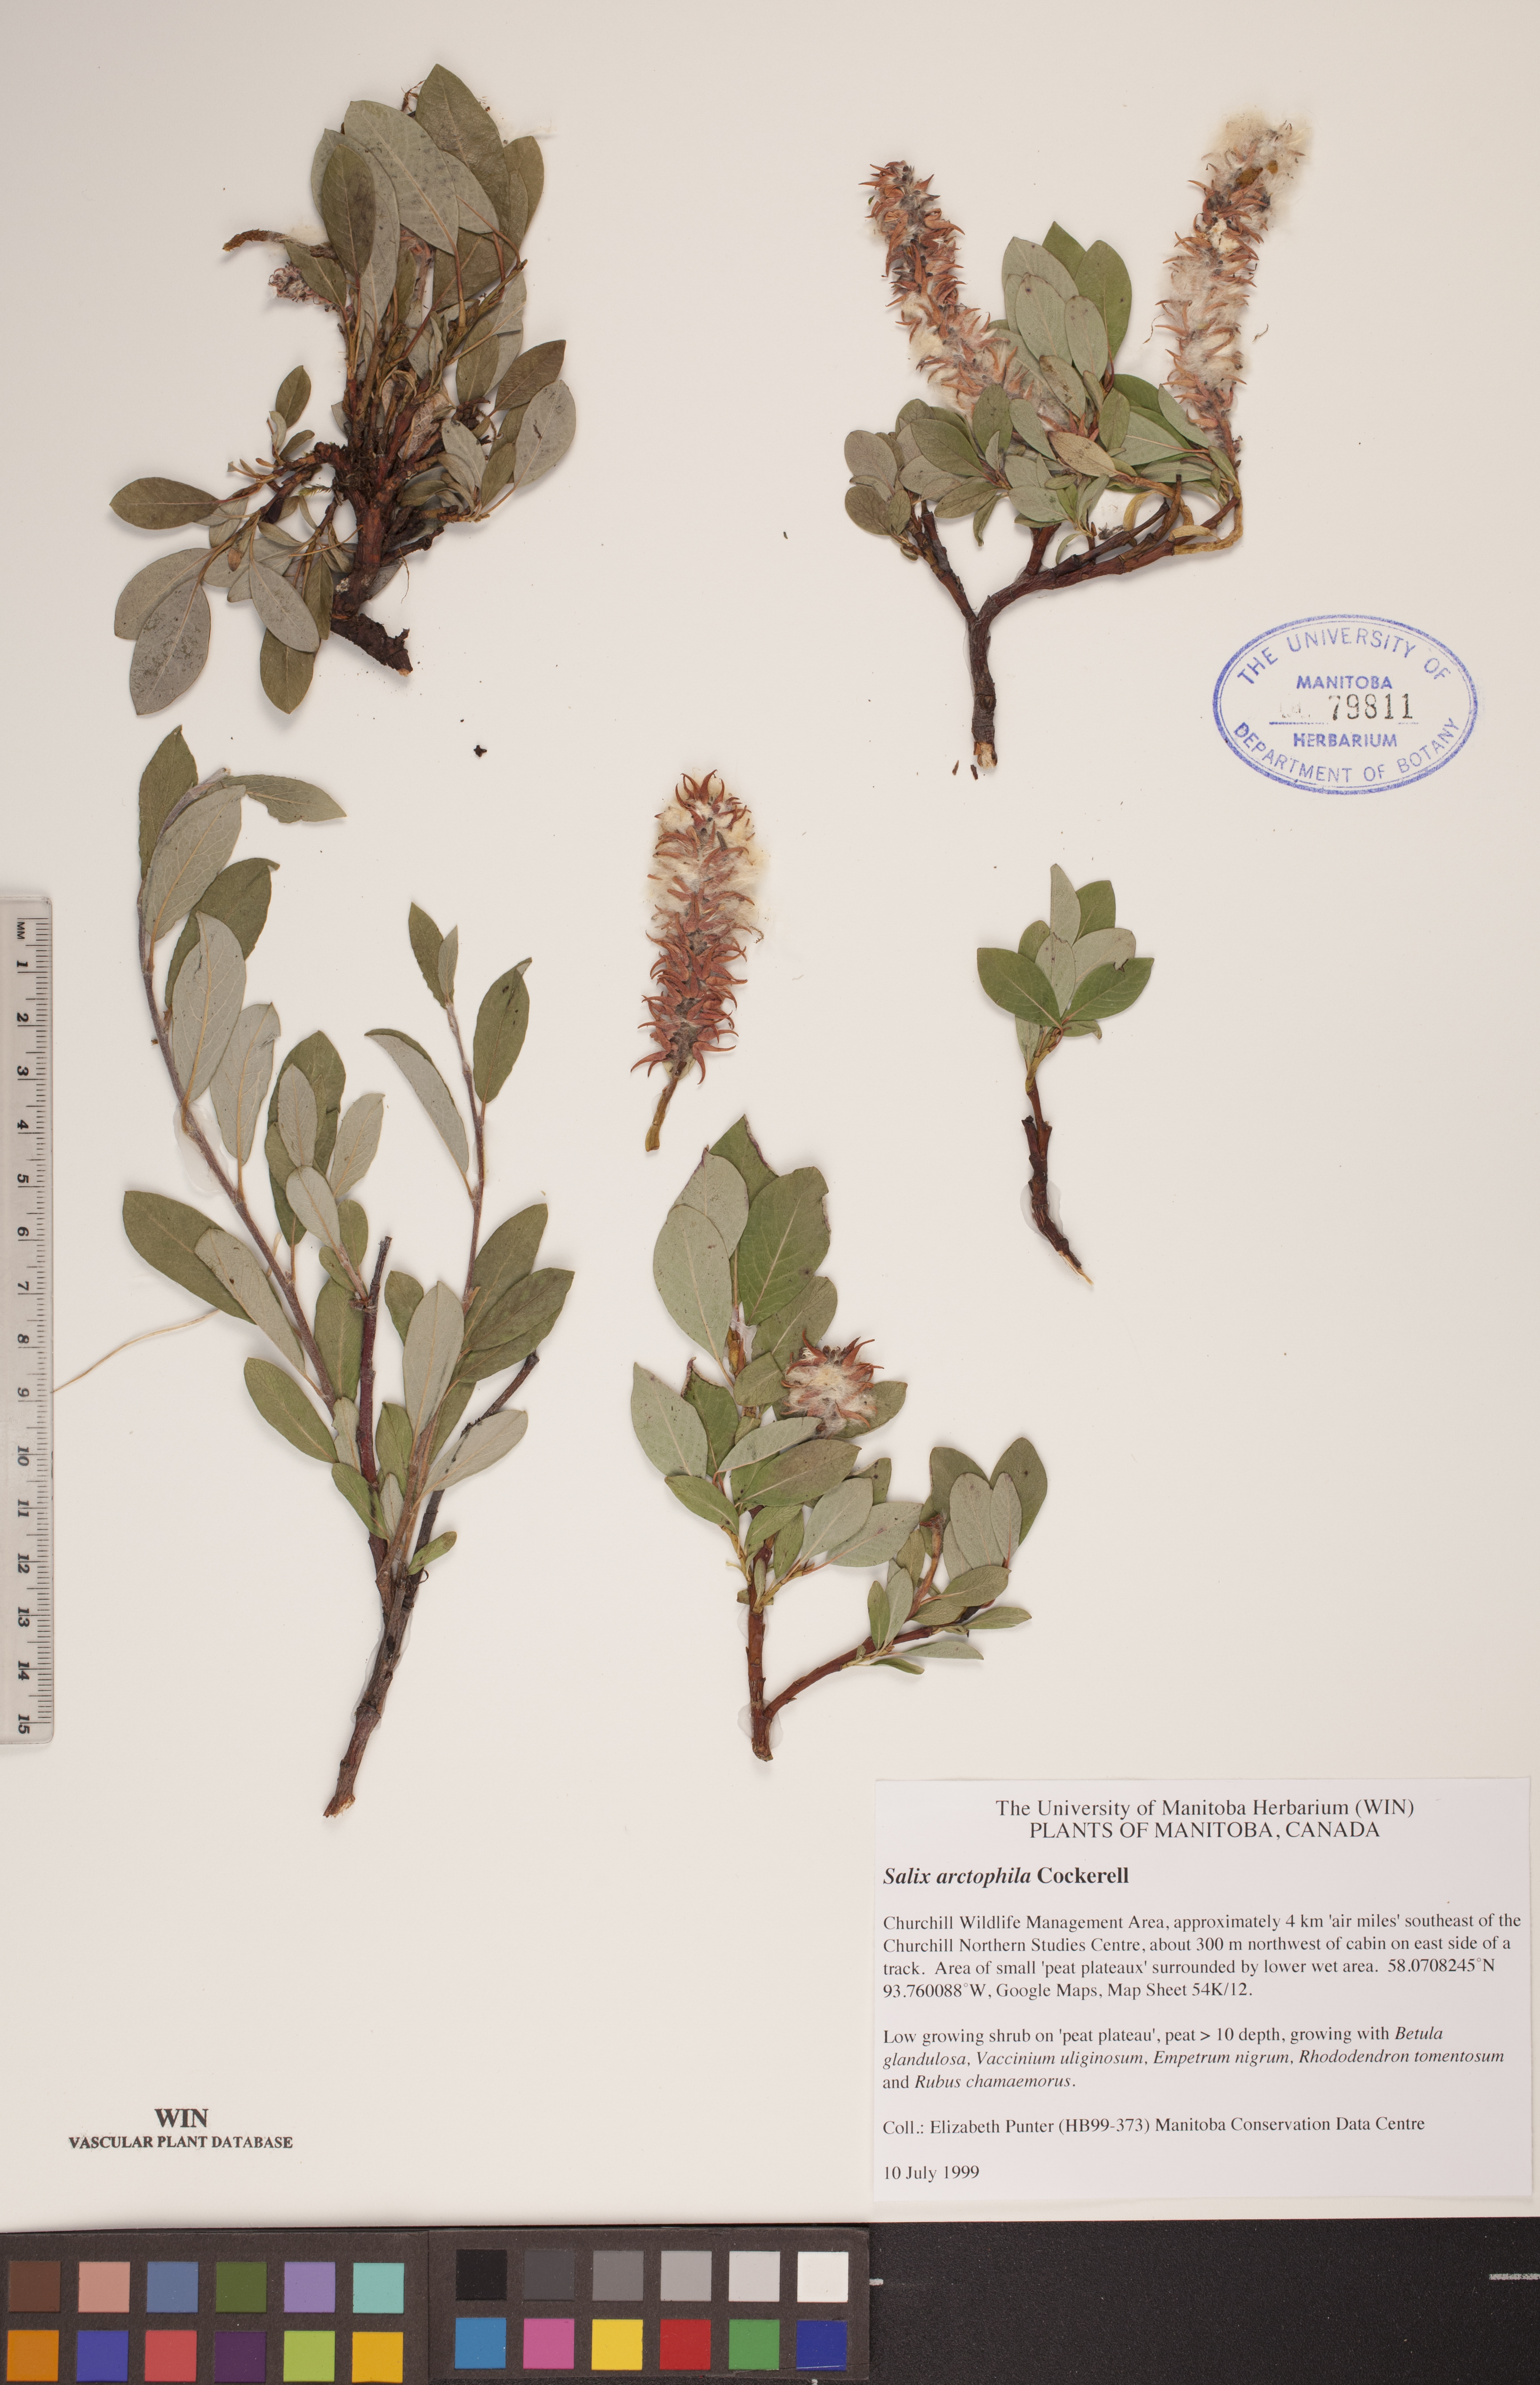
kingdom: Plantae
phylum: Tracheophyta
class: Magnoliopsida
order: Malpighiales
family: Salicaceae
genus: Salix
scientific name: Salix arctophila
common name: Greenland willow
